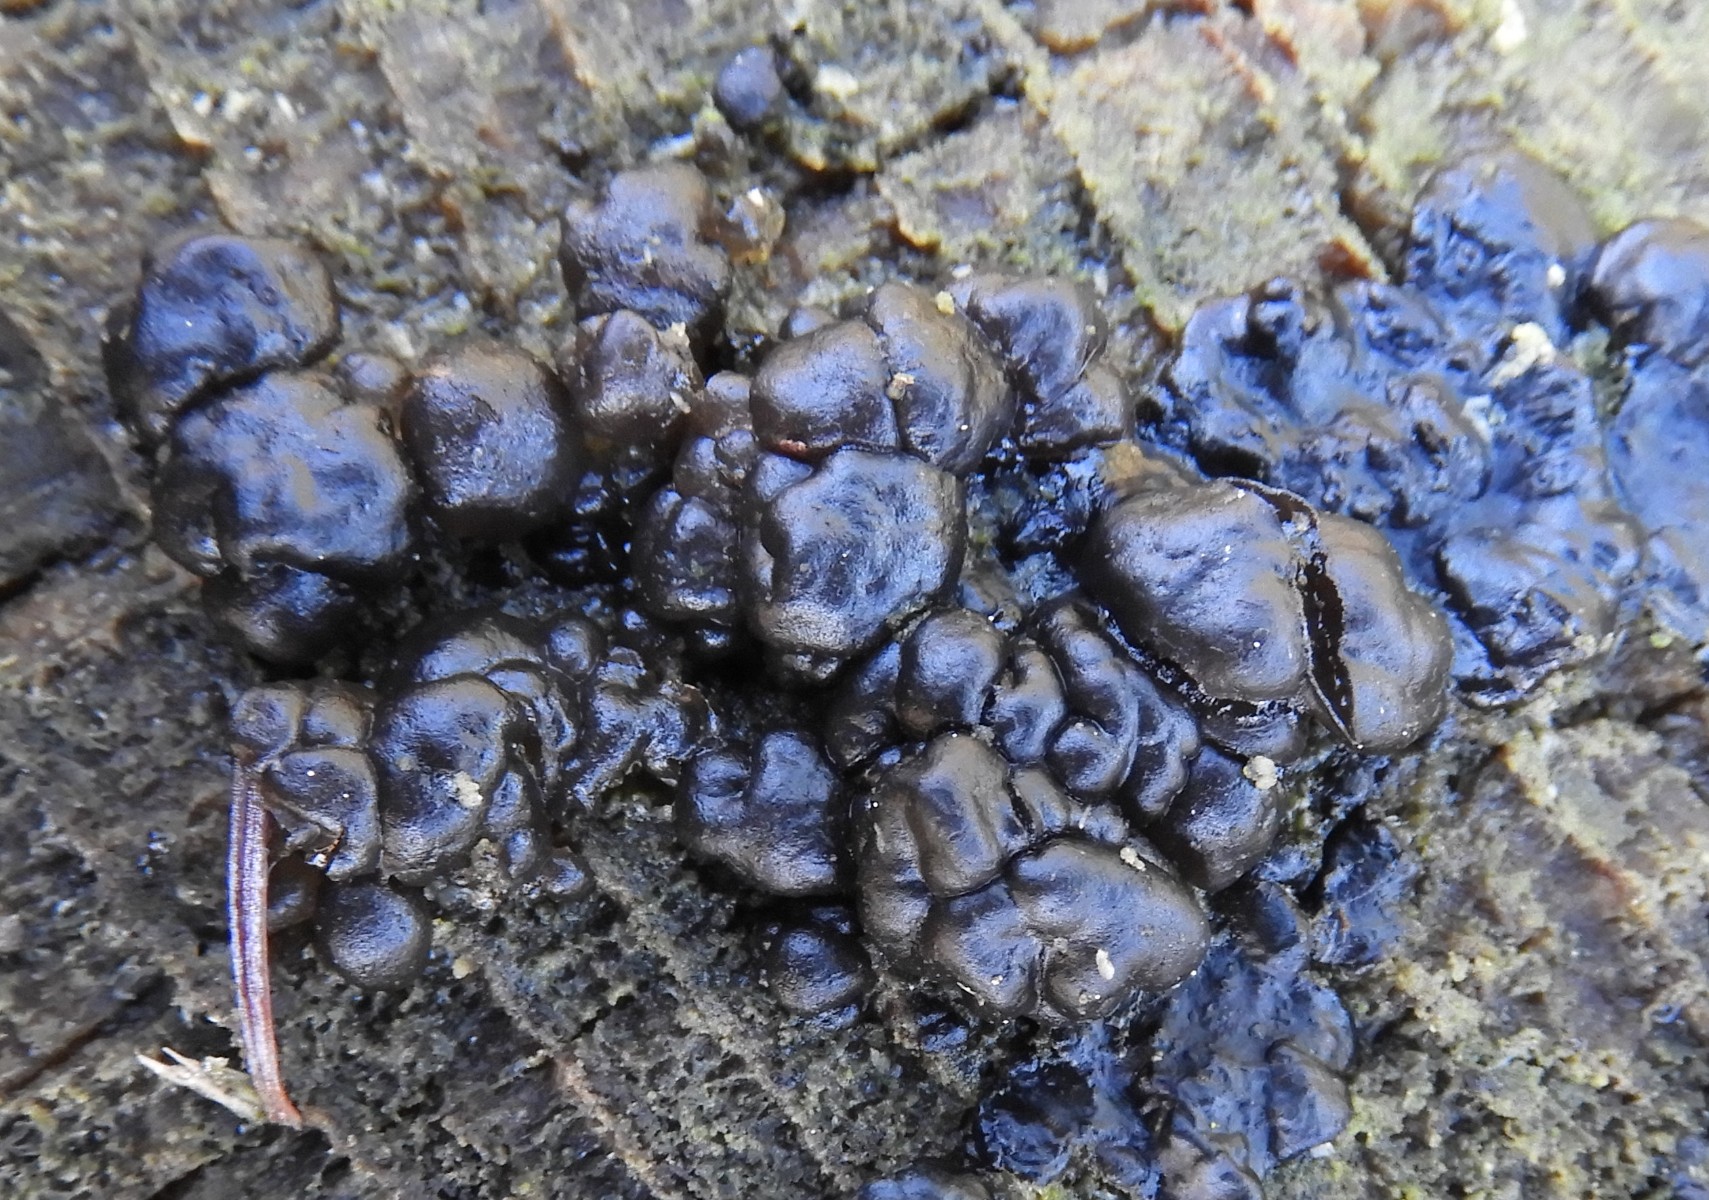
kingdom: Fungi
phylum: Basidiomycota
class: Agaricomycetes
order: Auriculariales
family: Auriculariaceae
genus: Exidia
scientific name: Exidia pithya
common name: gran-bævretop
